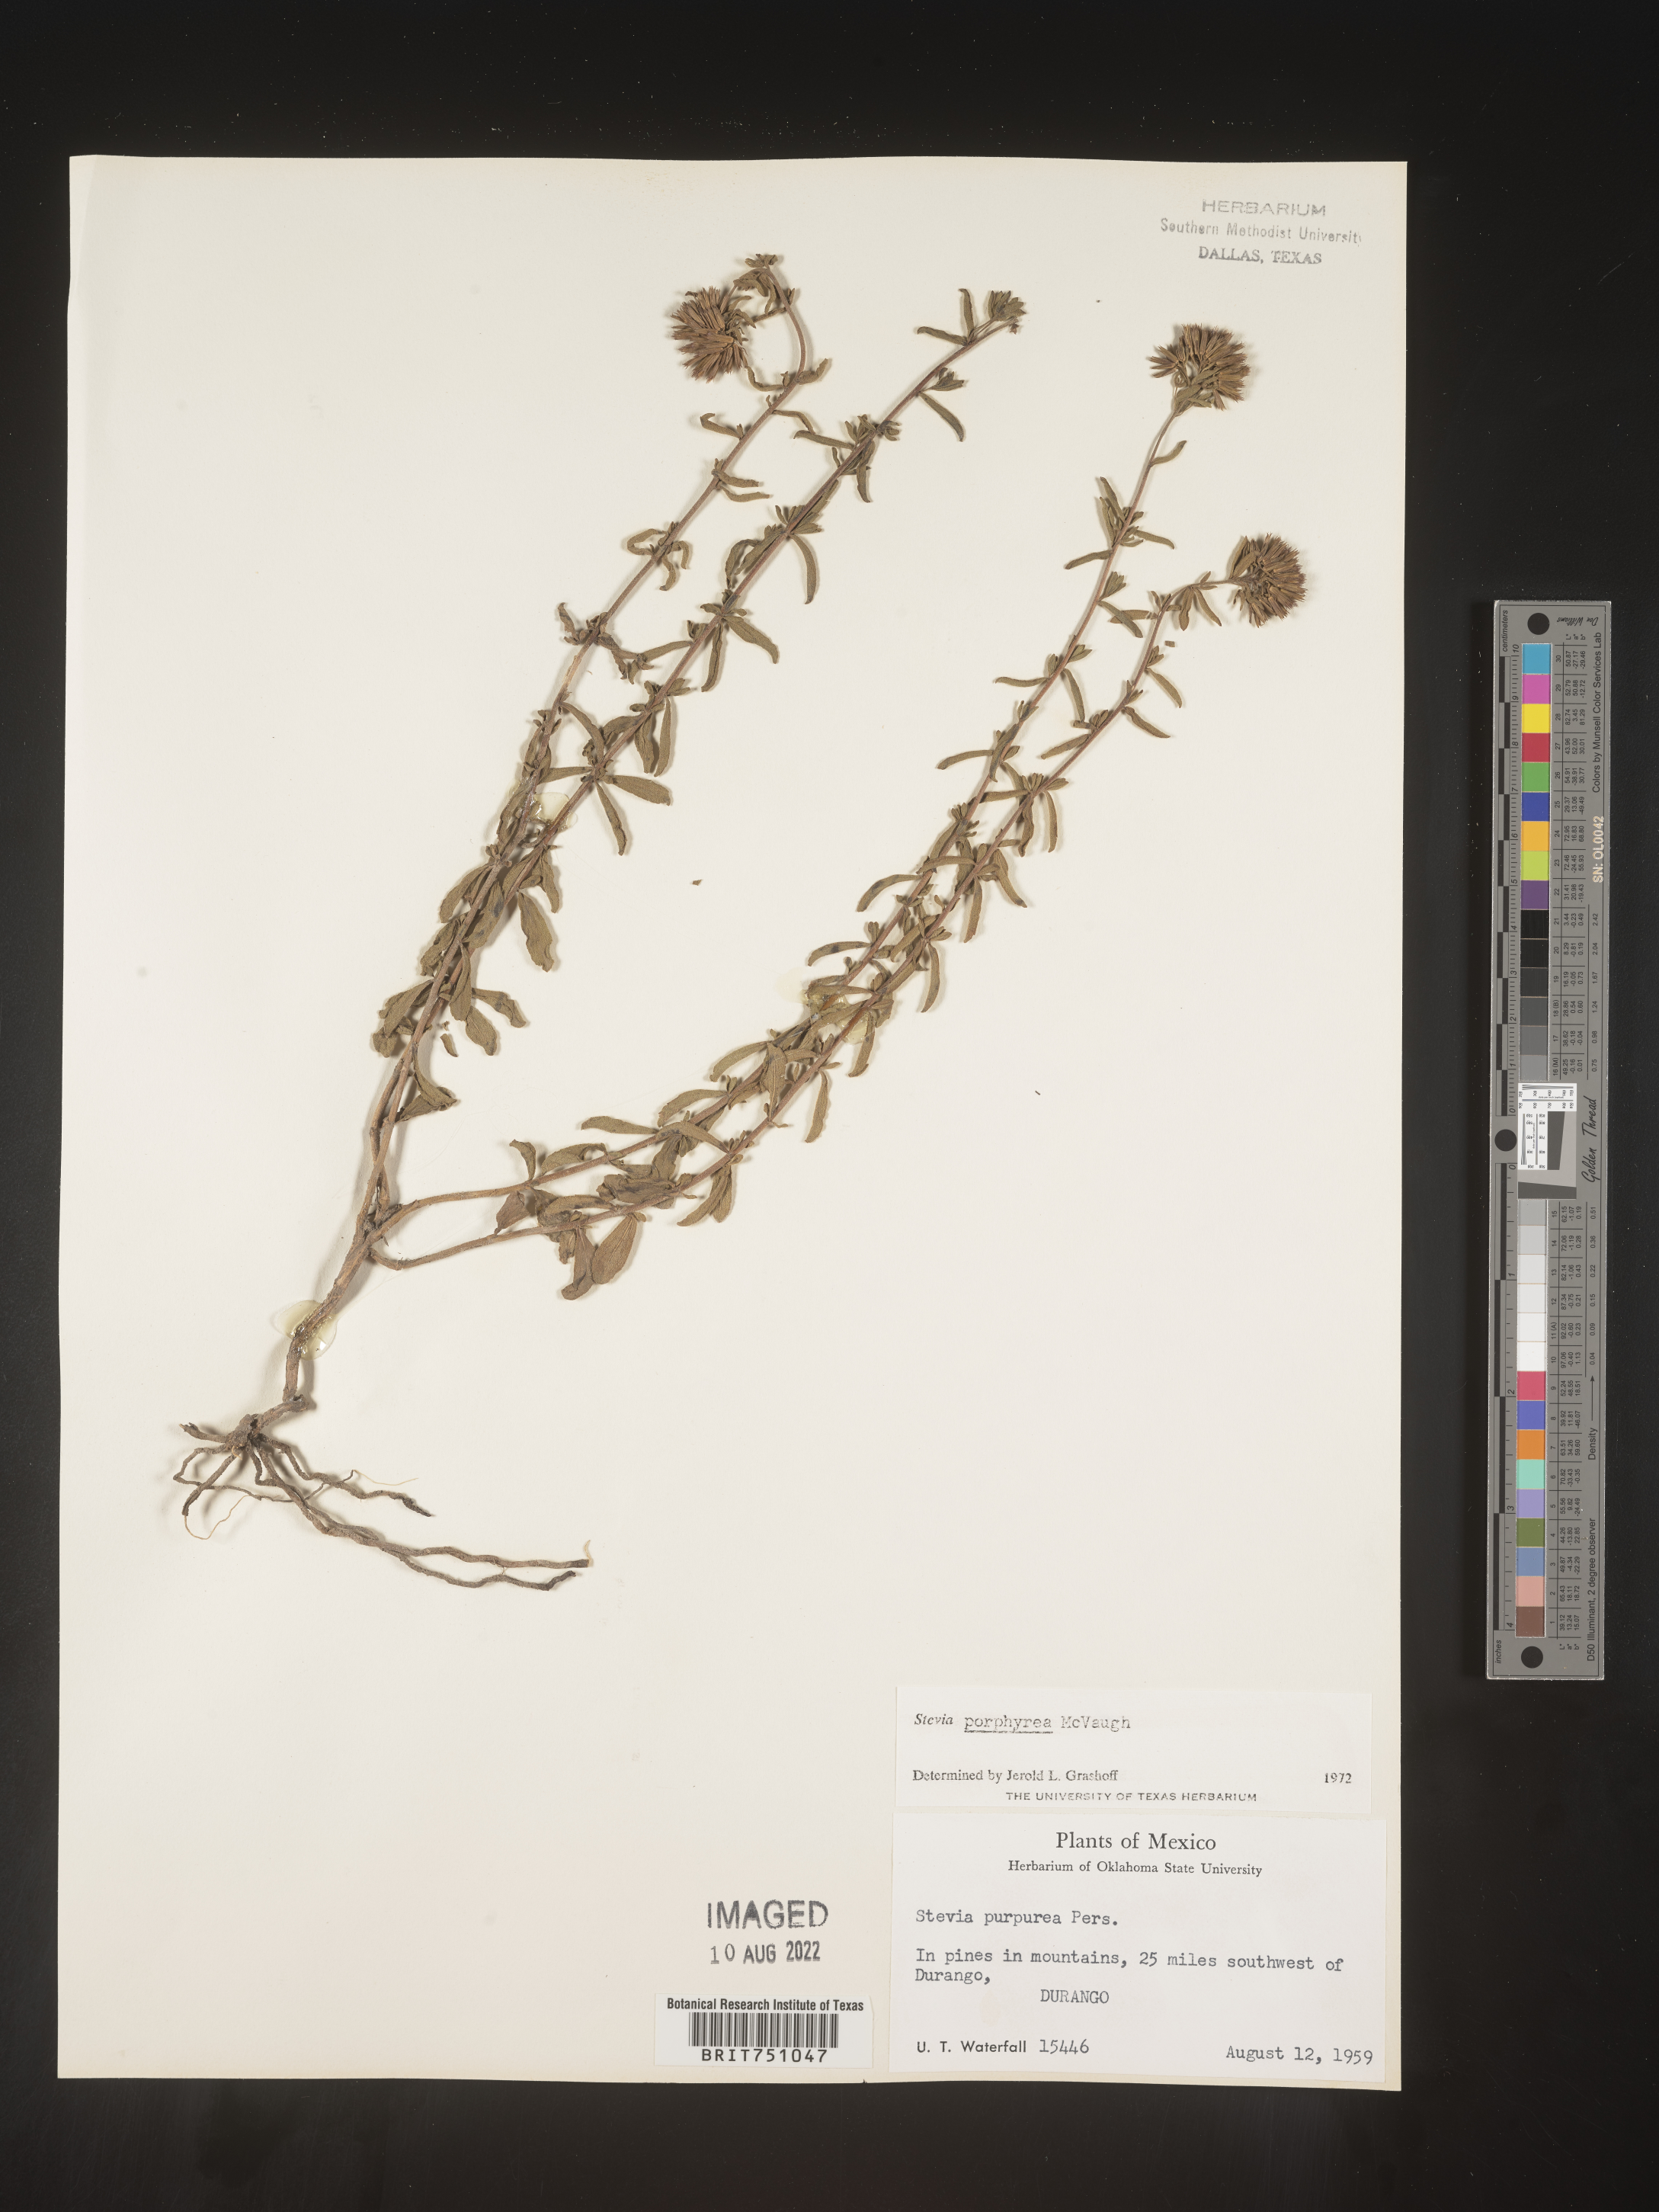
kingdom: Plantae
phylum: Tracheophyta
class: Magnoliopsida
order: Asterales
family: Asteraceae
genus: Stevia
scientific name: Stevia porphyrea
